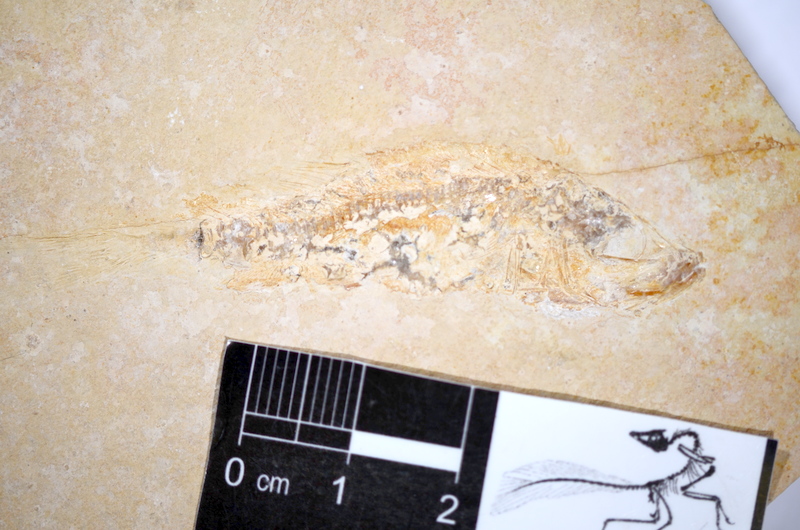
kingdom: Animalia
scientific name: Animalia
